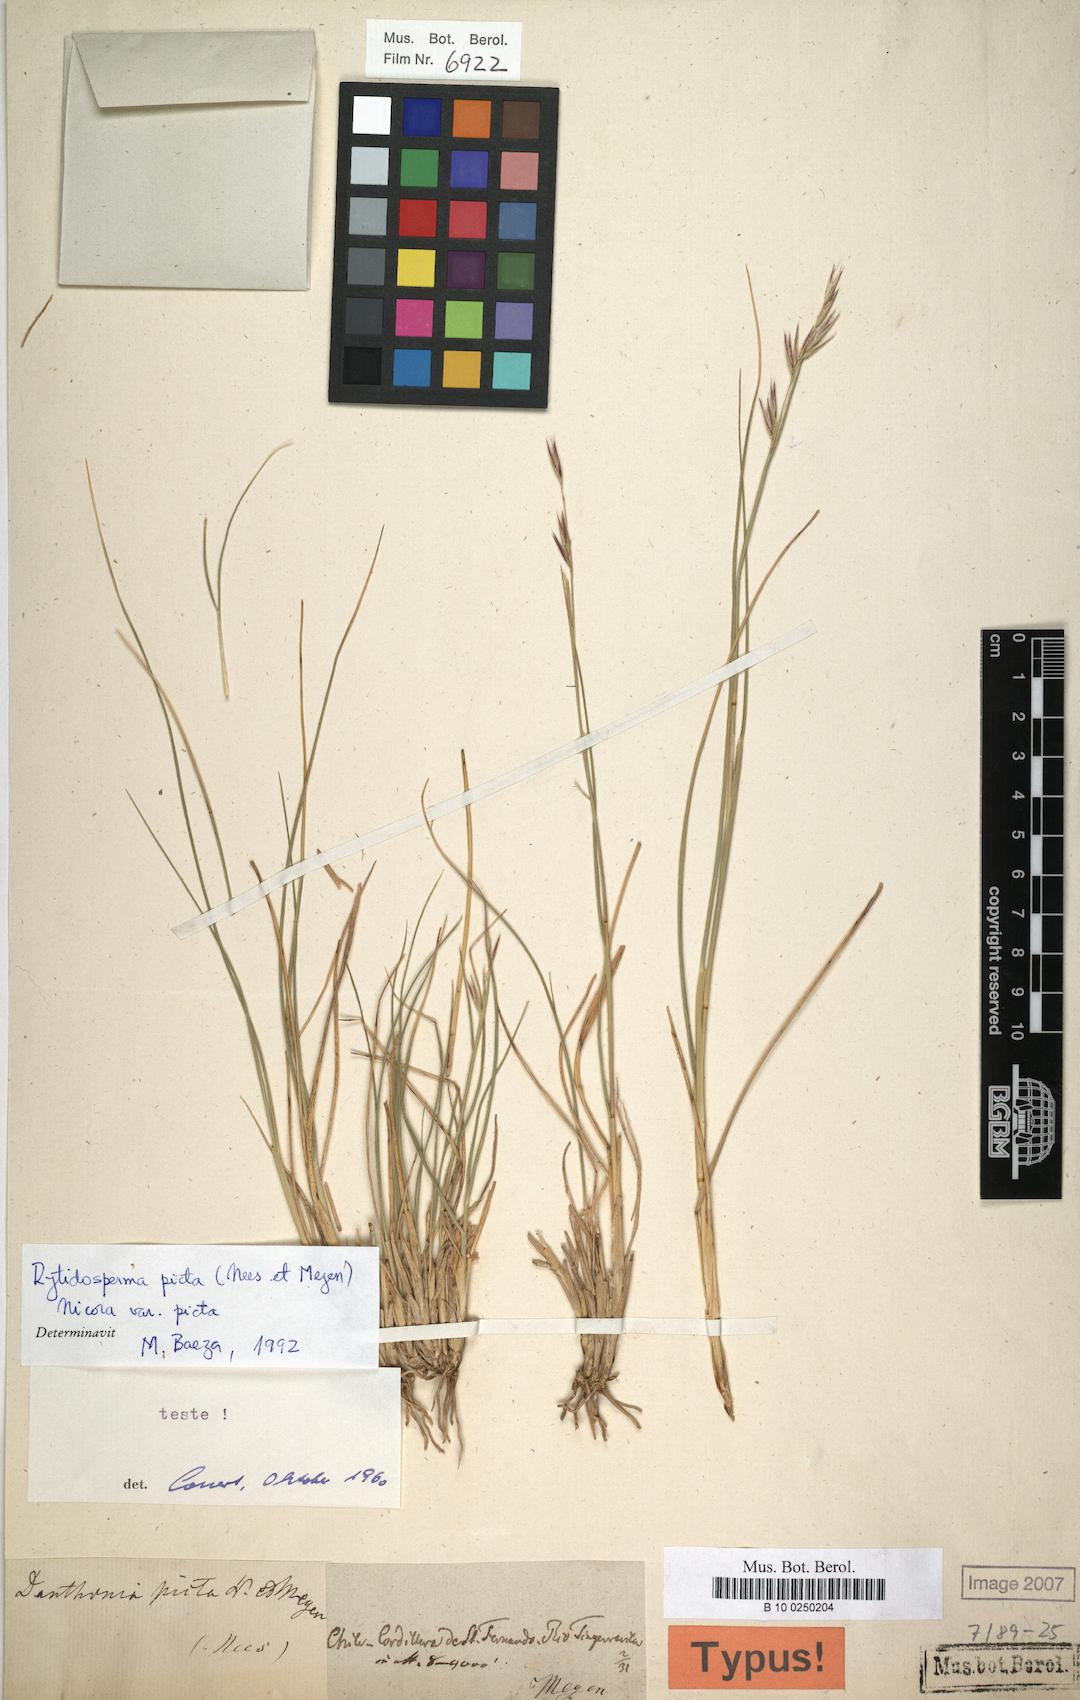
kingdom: Plantae
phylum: Tracheophyta
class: Liliopsida
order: Poales
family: Poaceae
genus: Rytidosperma
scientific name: Rytidosperma pictum
